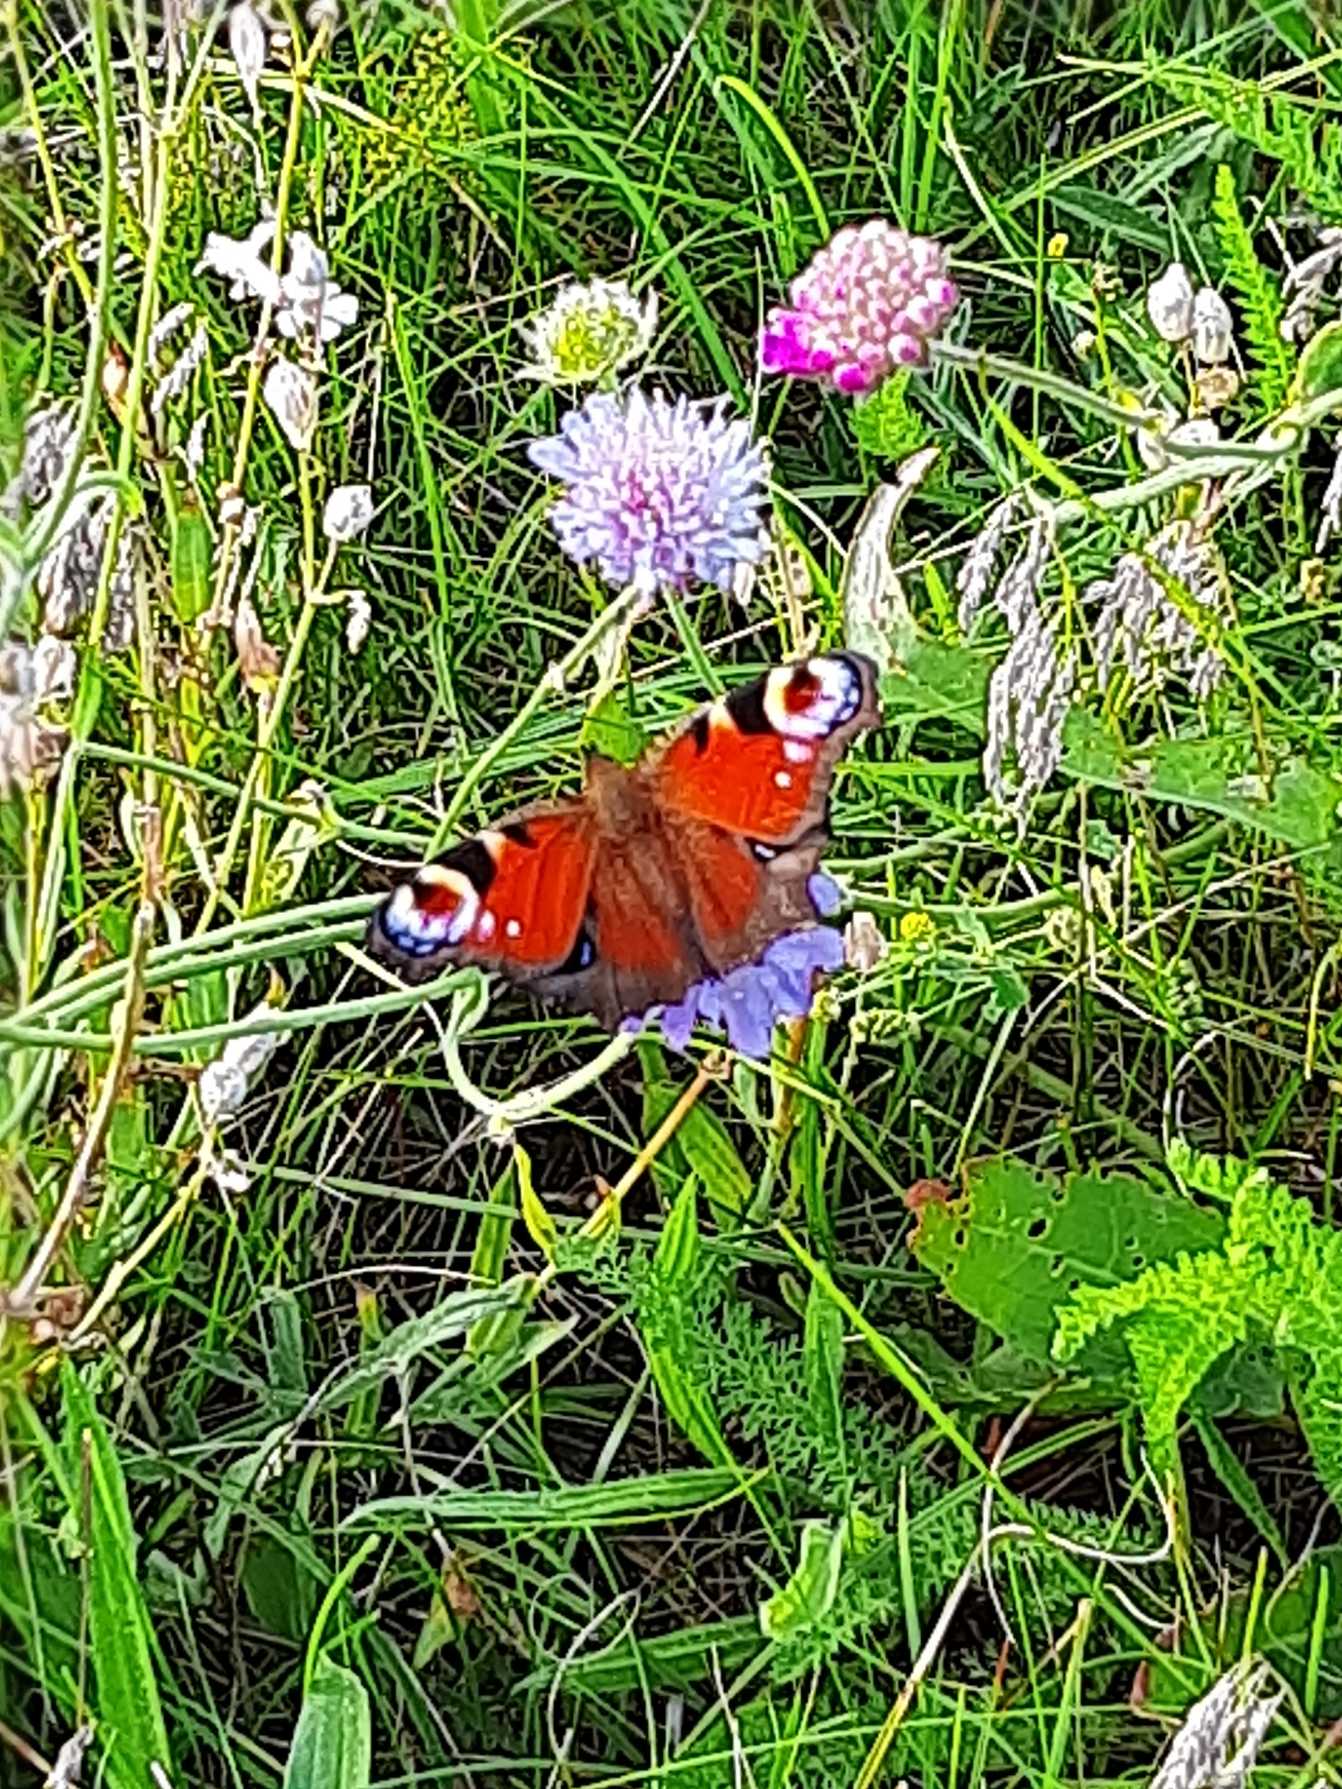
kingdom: Animalia
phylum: Arthropoda
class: Insecta
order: Lepidoptera
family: Nymphalidae
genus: Aglais
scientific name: Aglais io
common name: Dagpåfugleøje
